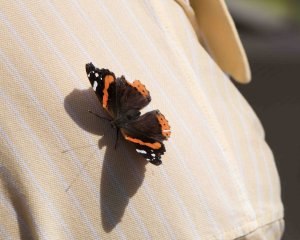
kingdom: Animalia
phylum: Arthropoda
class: Insecta
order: Lepidoptera
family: Nymphalidae
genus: Vanessa
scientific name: Vanessa atalanta
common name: Red Admiral
